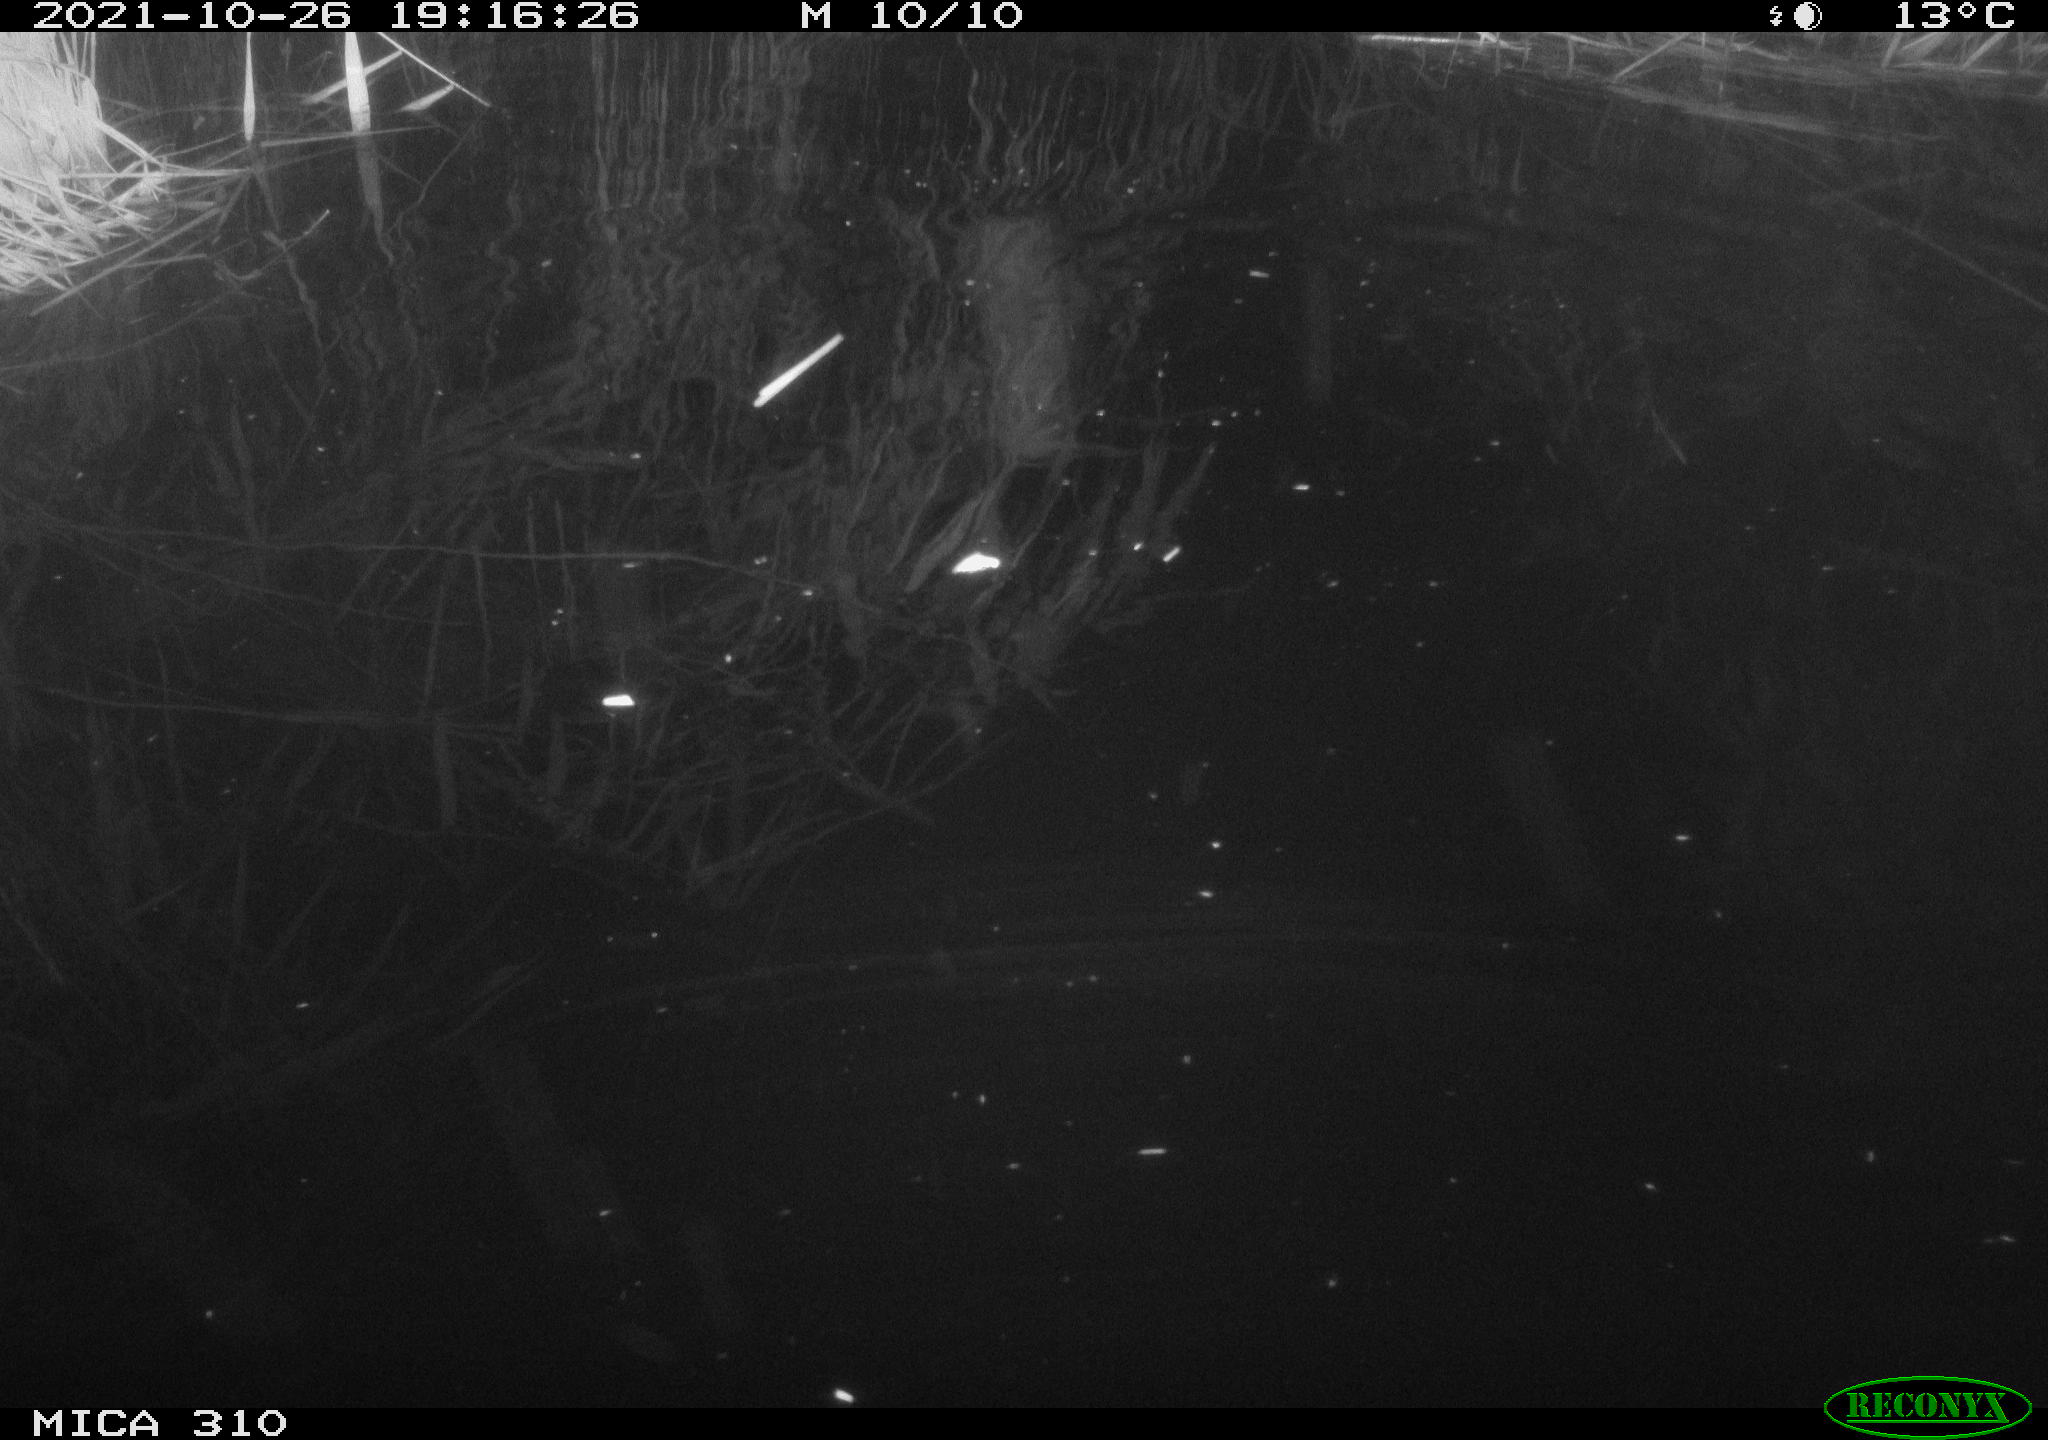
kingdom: Animalia
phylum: Chordata
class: Mammalia
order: Rodentia
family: Muridae
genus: Rattus
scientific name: Rattus norvegicus
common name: Brown rat
